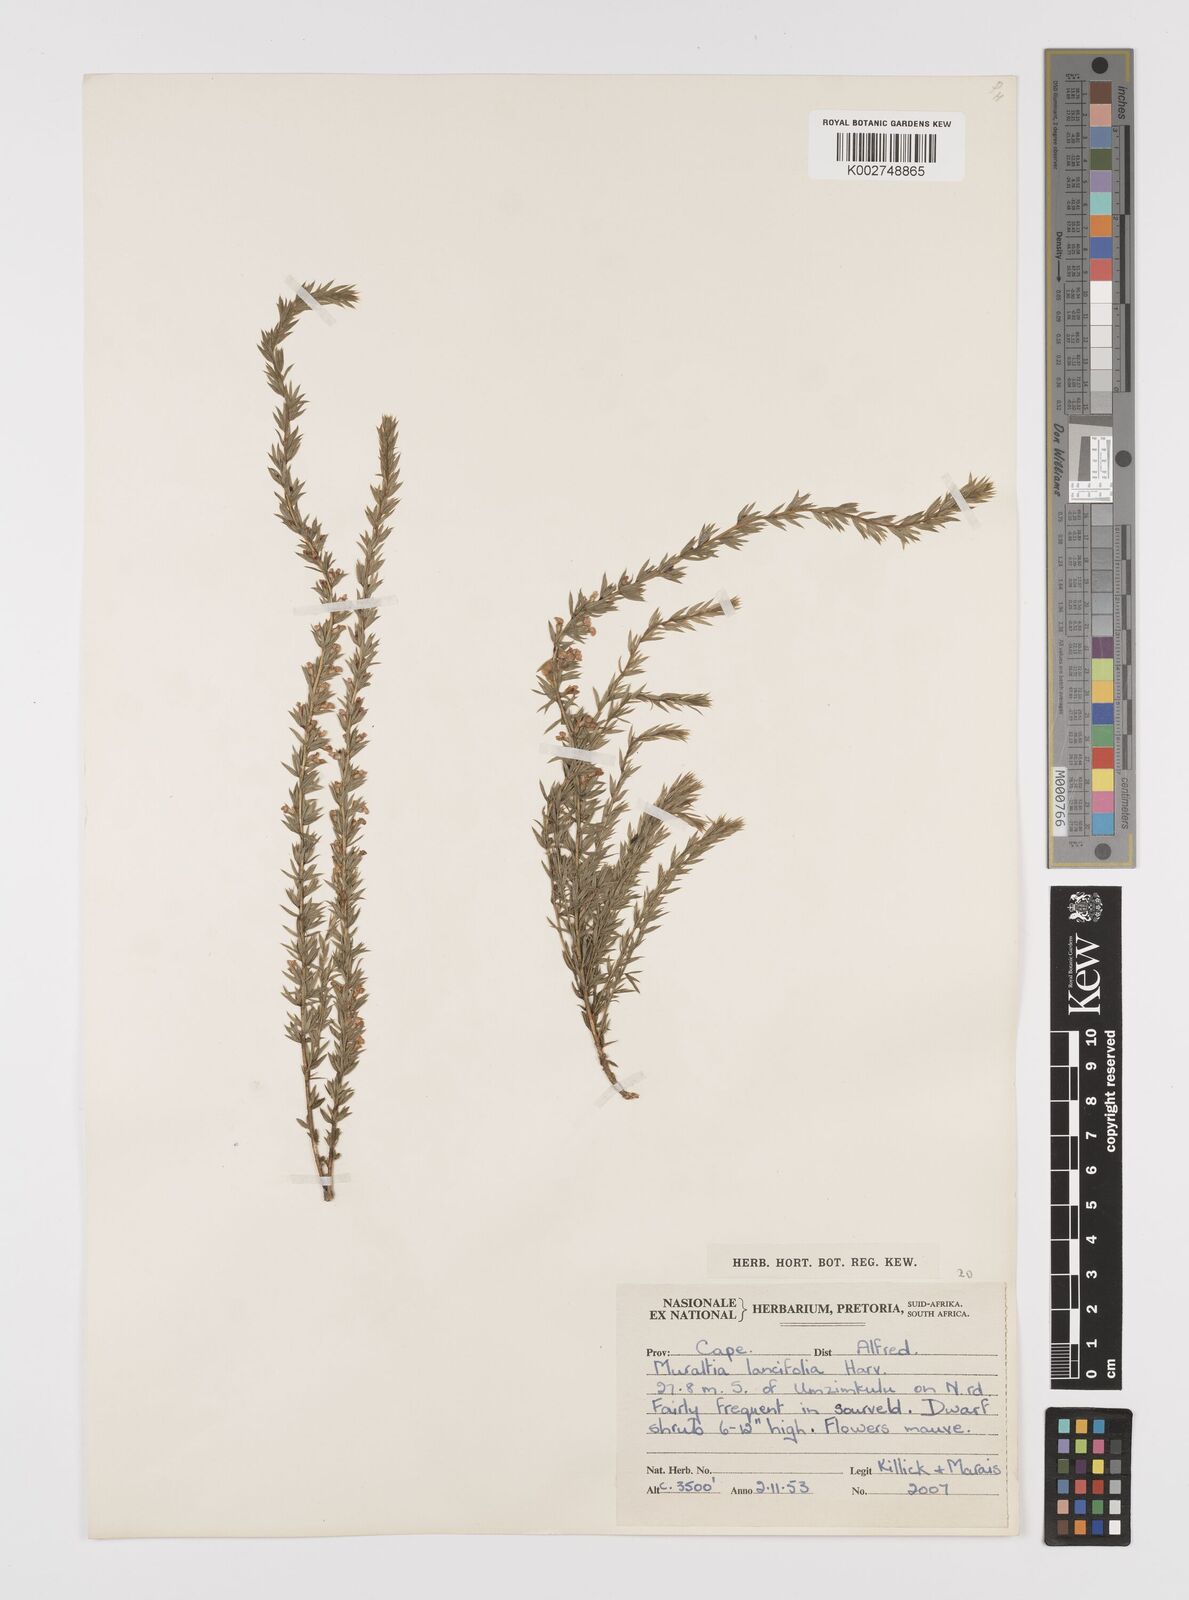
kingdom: Plantae
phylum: Tracheophyta
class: Magnoliopsida
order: Fabales
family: Polygalaceae
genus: Muraltia
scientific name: Muraltia lancifolia
